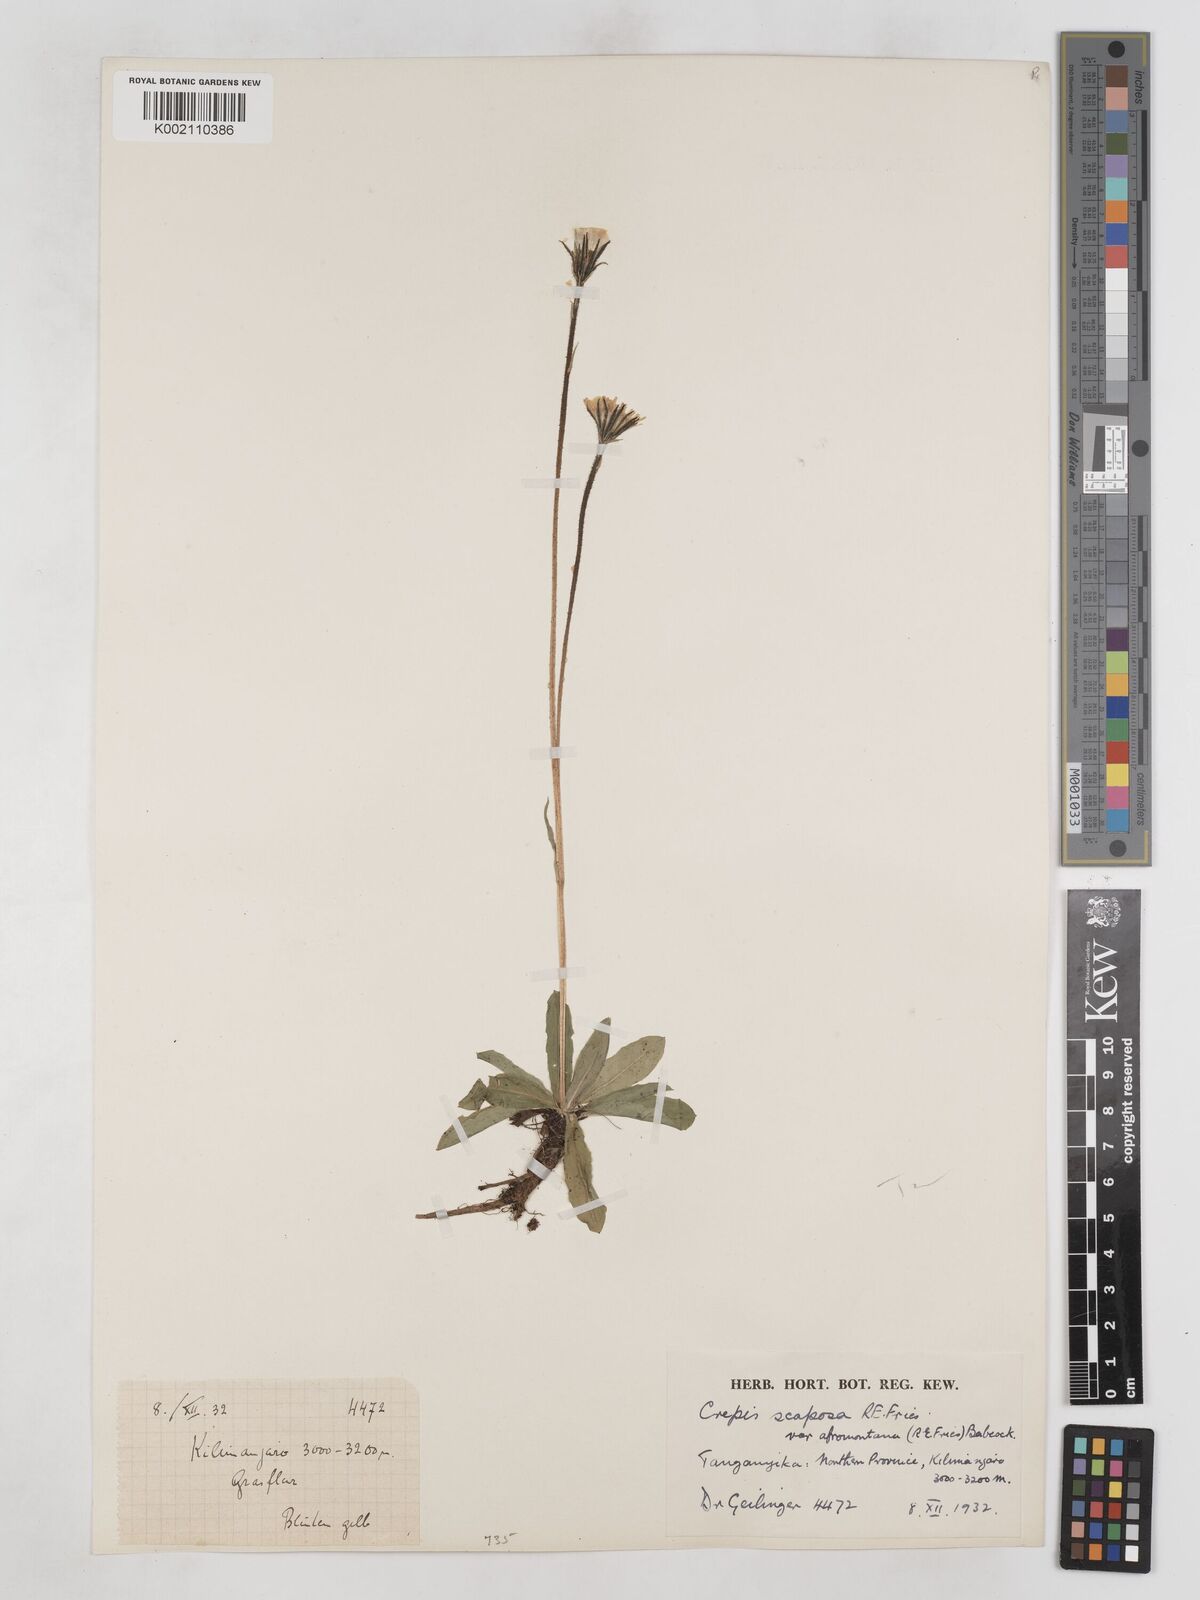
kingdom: Plantae
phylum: Tracheophyta
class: Magnoliopsida
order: Asterales
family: Asteraceae
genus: Crepis
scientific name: Crepis carbonaria
